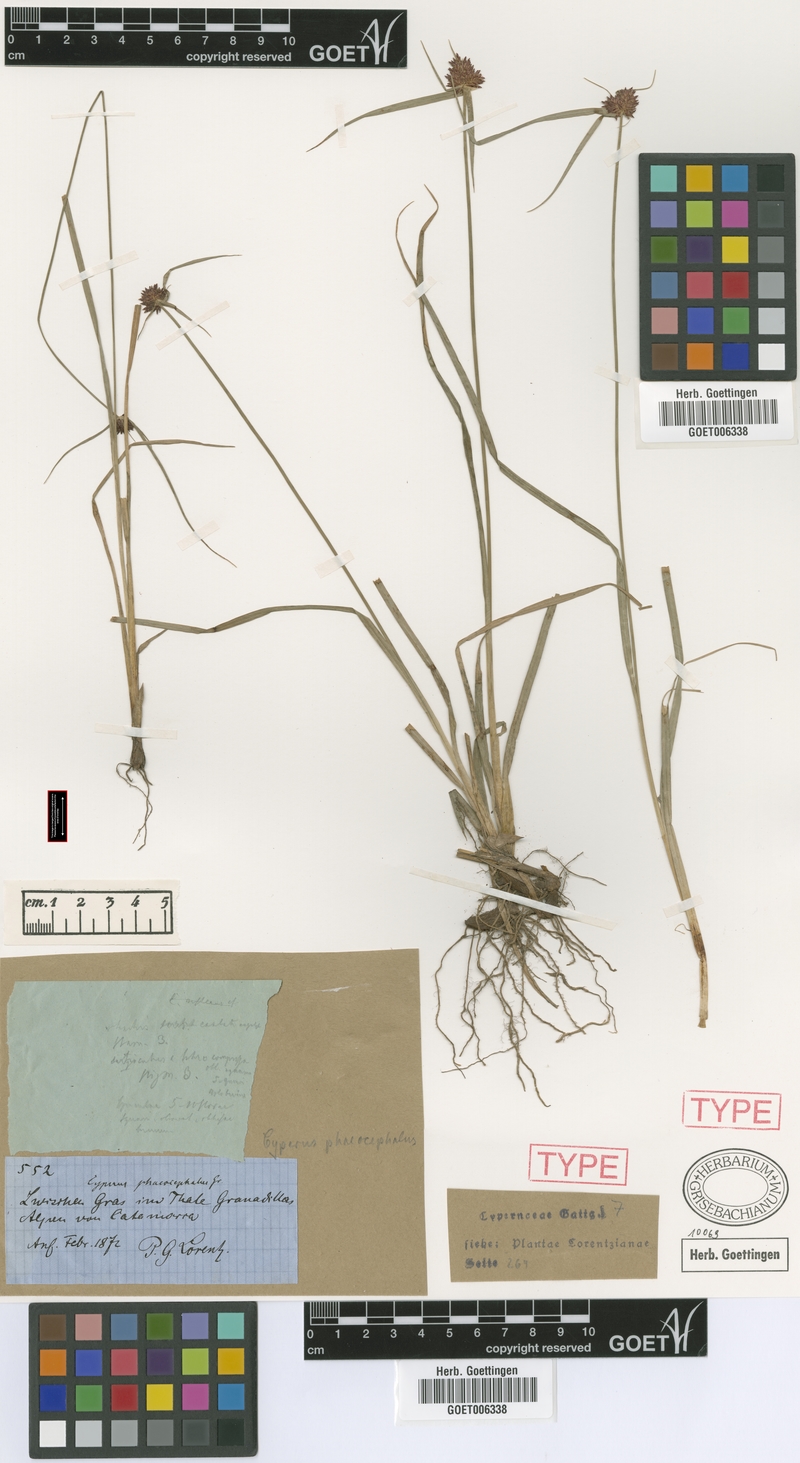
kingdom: Plantae
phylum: Tracheophyta
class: Liliopsida
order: Poales
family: Cyperaceae
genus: Cyperus
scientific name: Cyperus manimae
